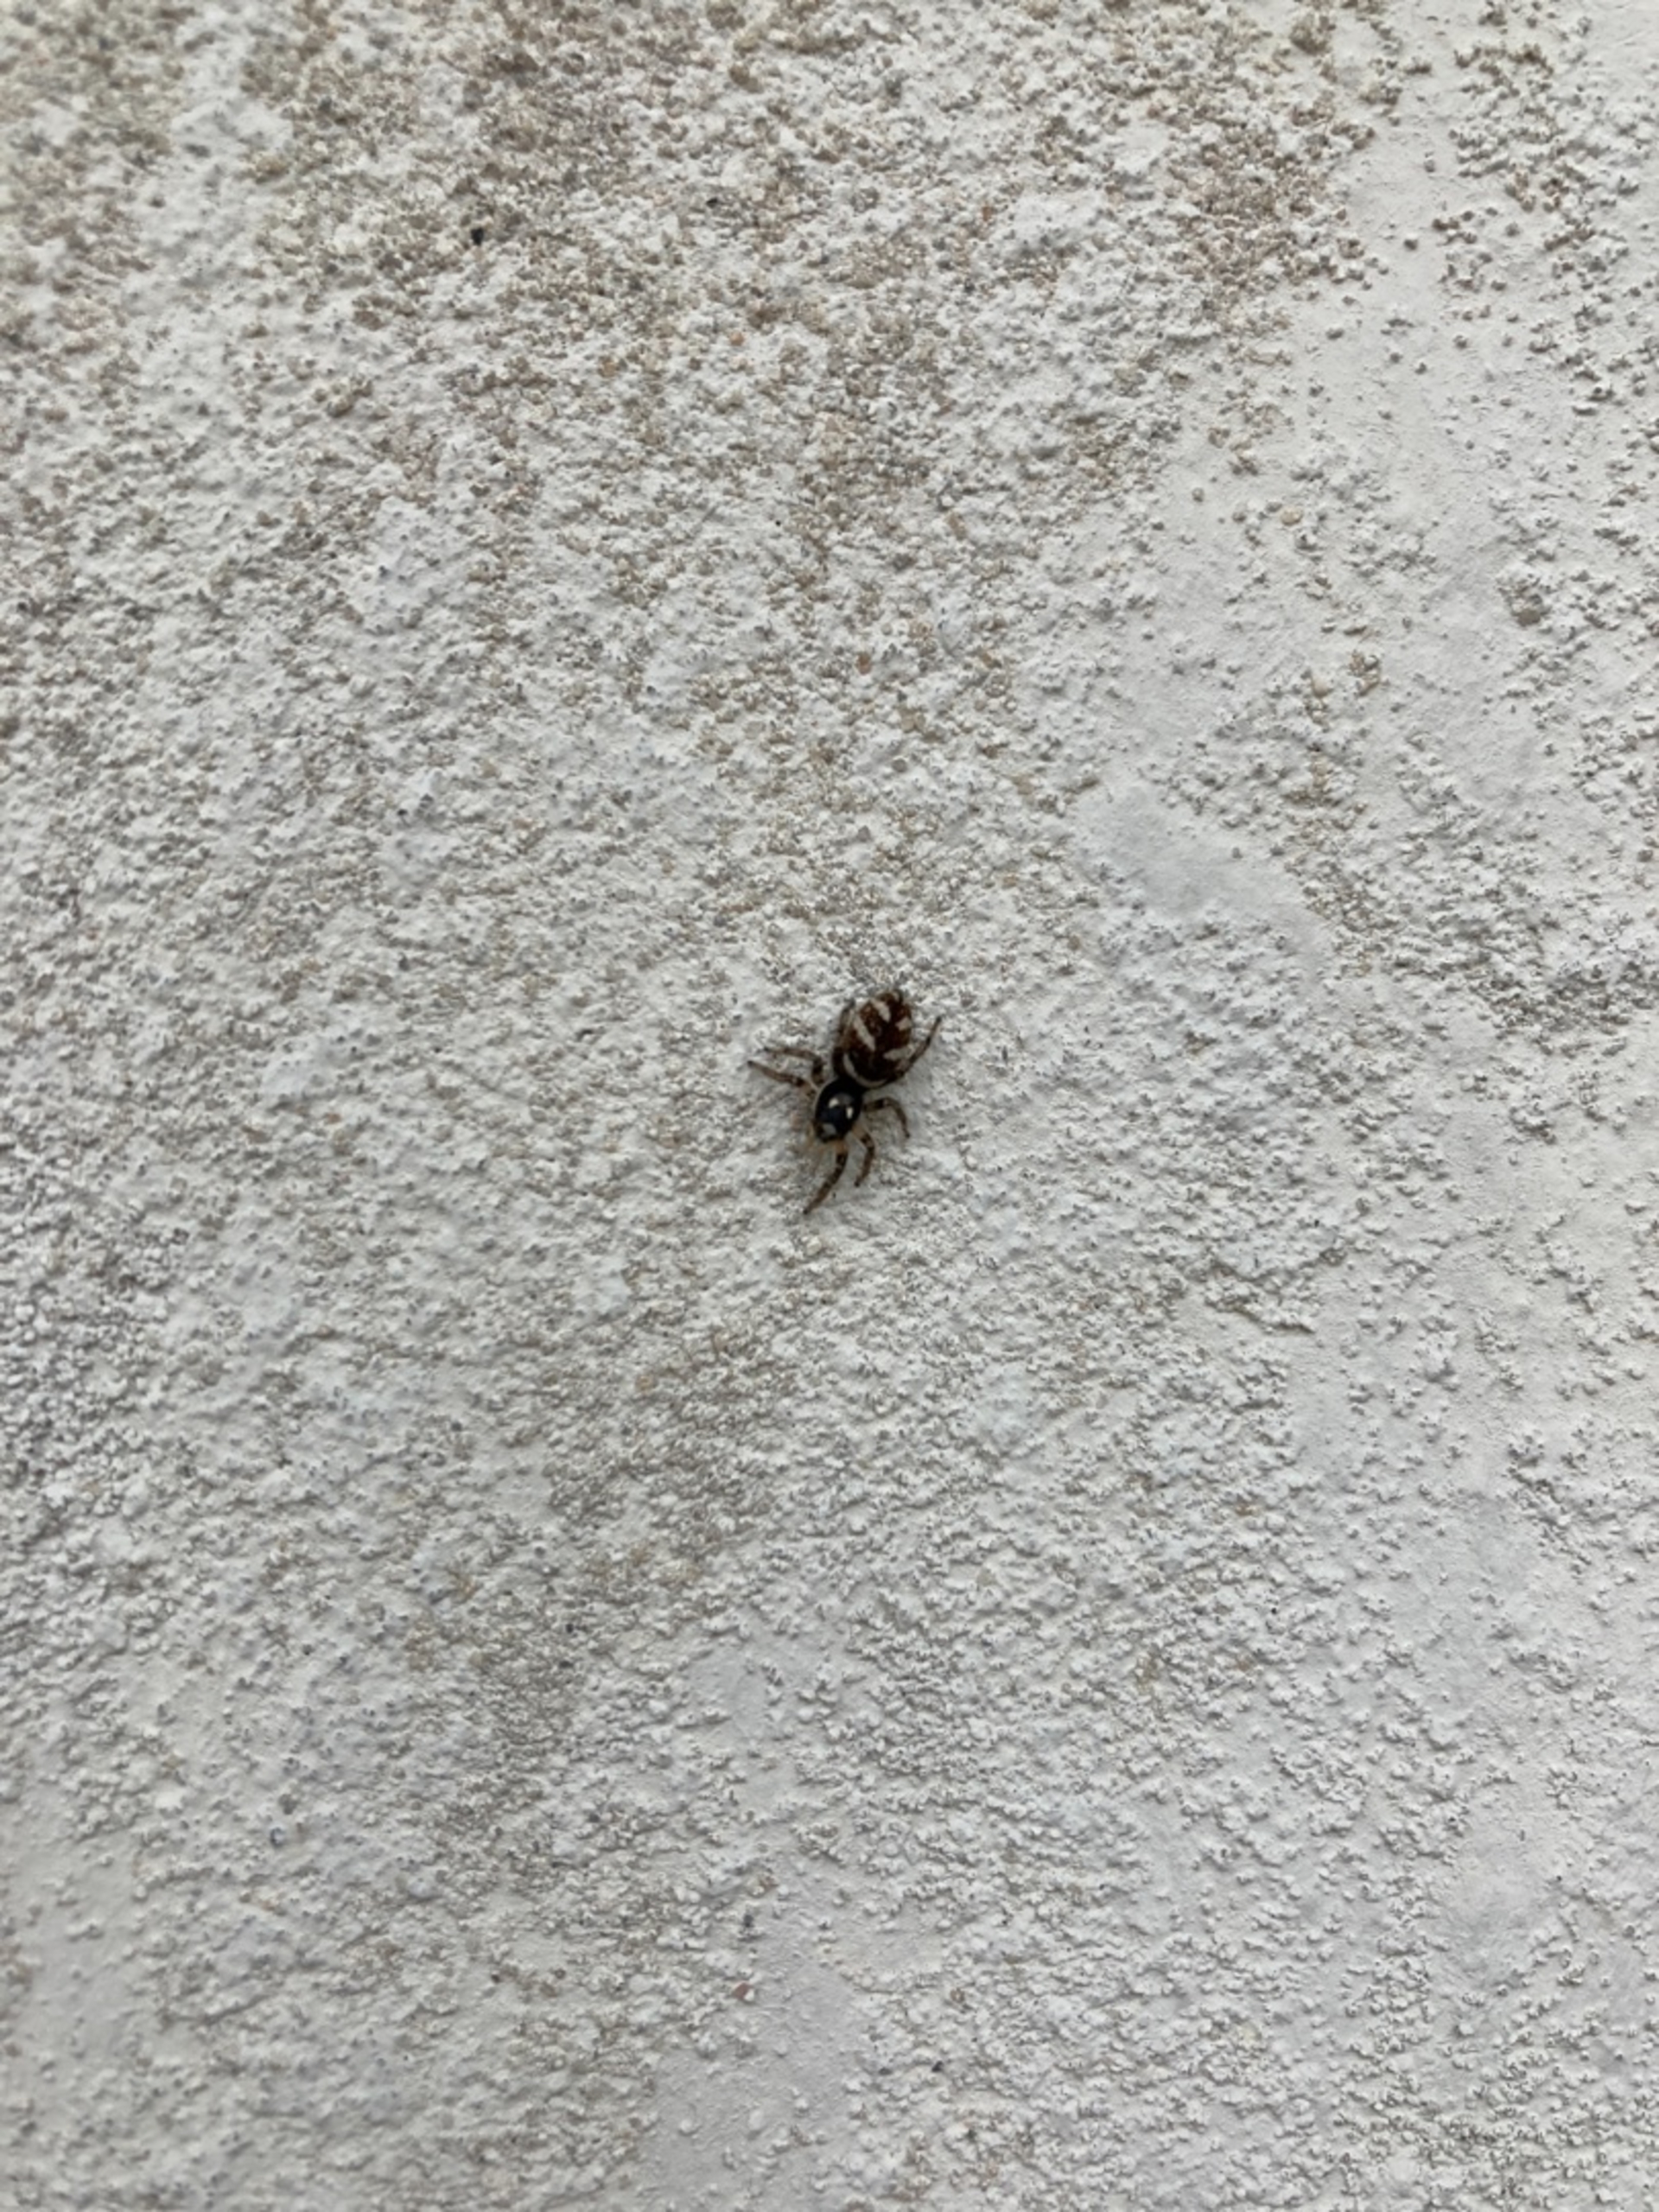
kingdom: Animalia
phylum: Arthropoda
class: Arachnida
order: Araneae
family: Salticidae
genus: Salticus
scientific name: Salticus scenicus
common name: Almindelig zebraedderkop
